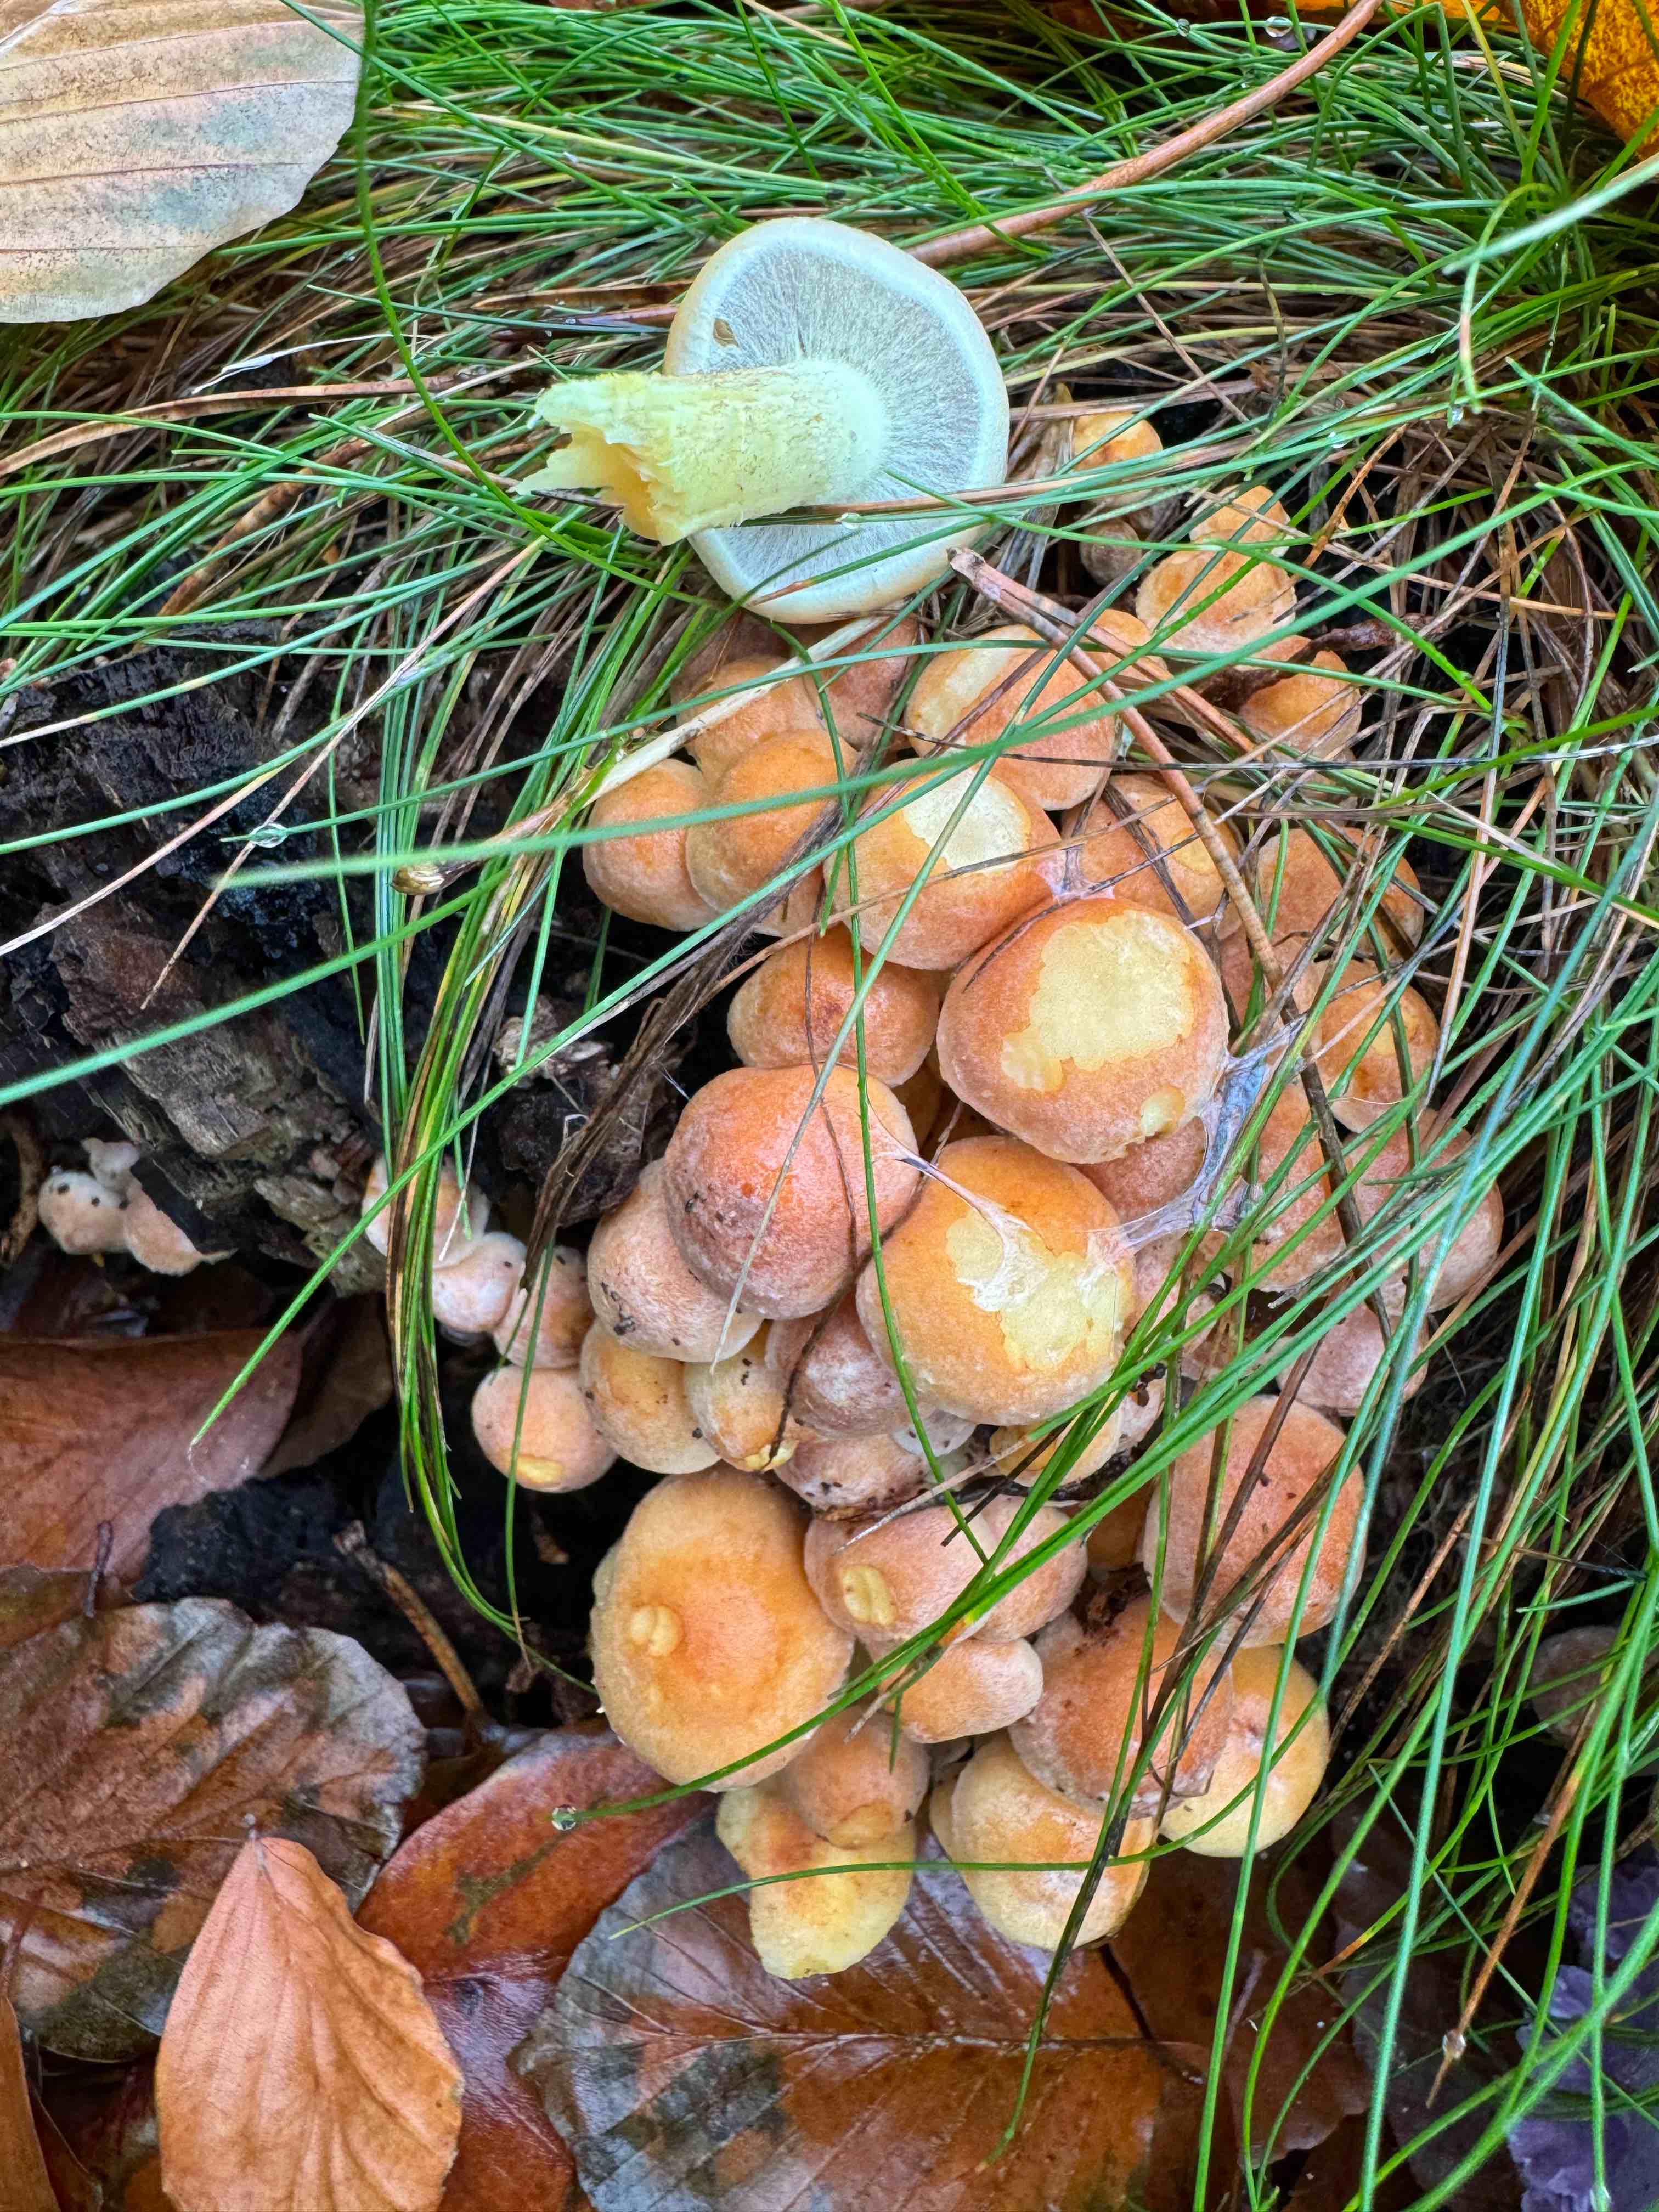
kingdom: Fungi
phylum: Basidiomycota
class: Agaricomycetes
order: Agaricales
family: Strophariaceae
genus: Hypholoma
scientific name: Hypholoma fasciculare
